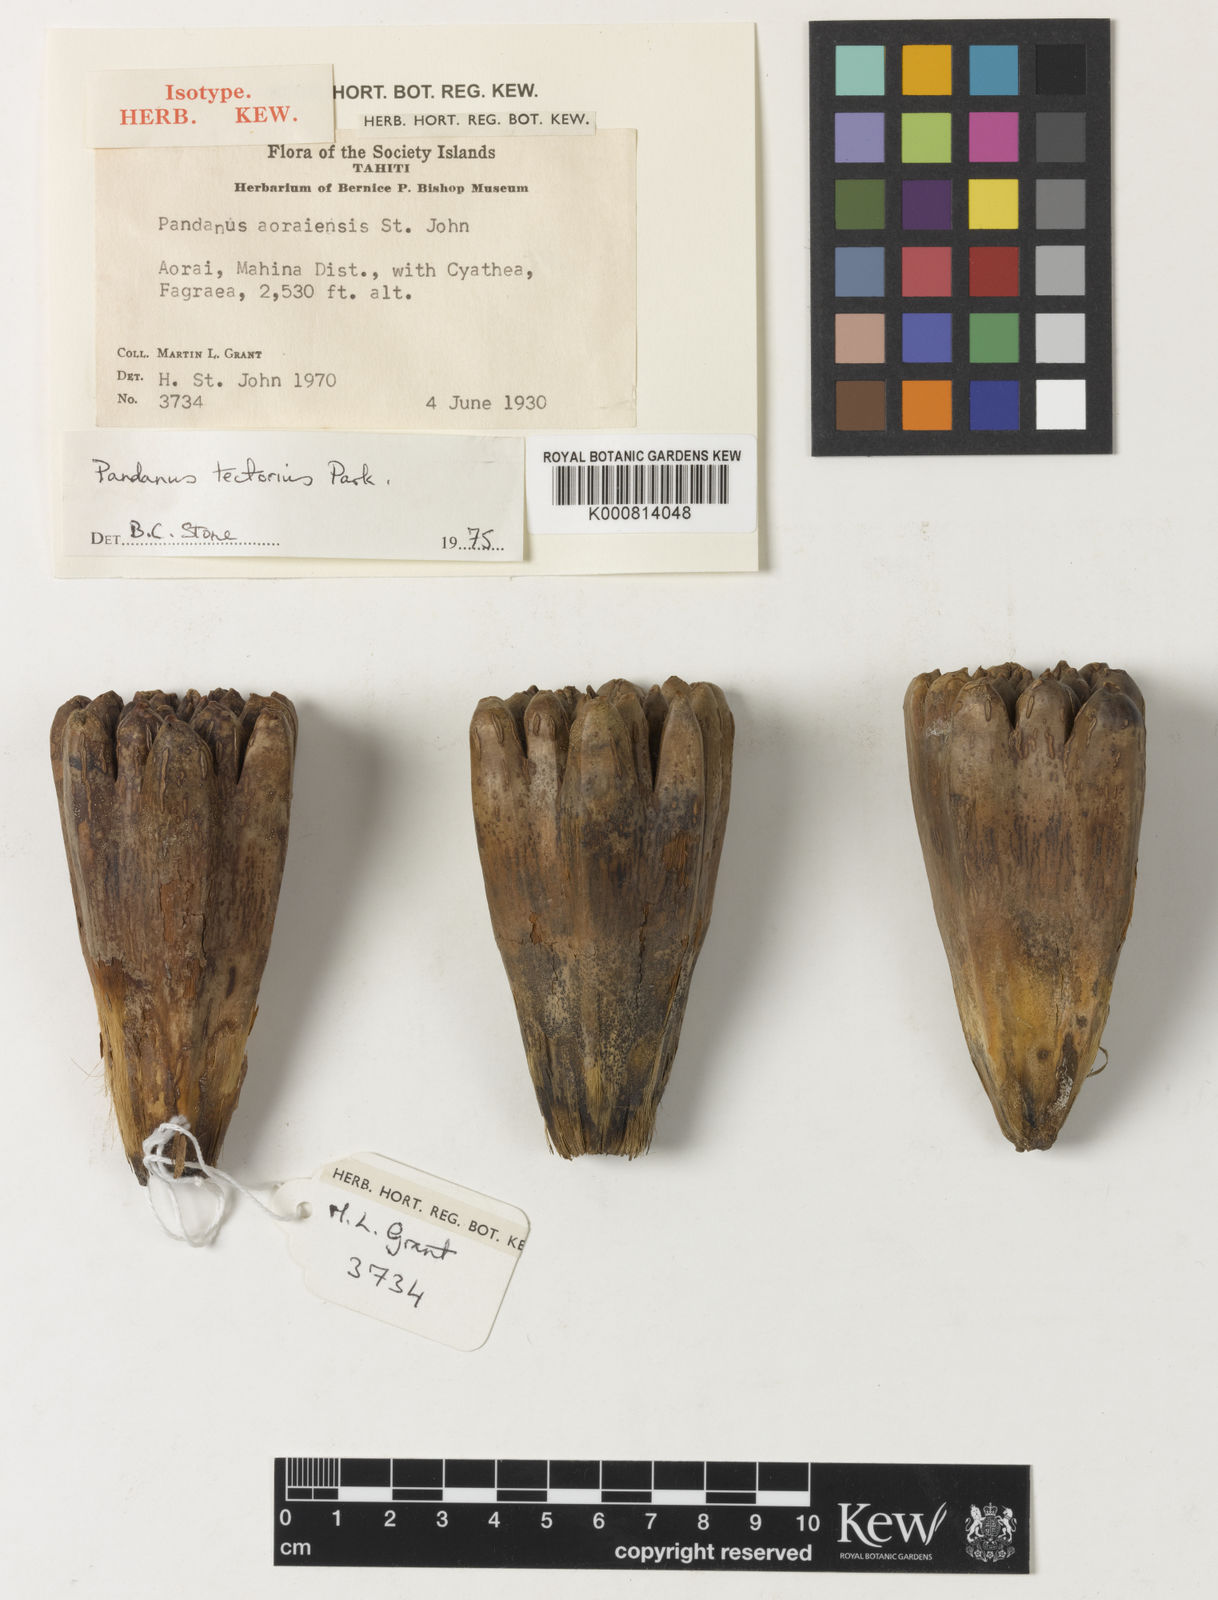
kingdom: Plantae
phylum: Tracheophyta
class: Liliopsida
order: Pandanales
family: Pandanaceae
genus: Pandanus
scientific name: Pandanus
